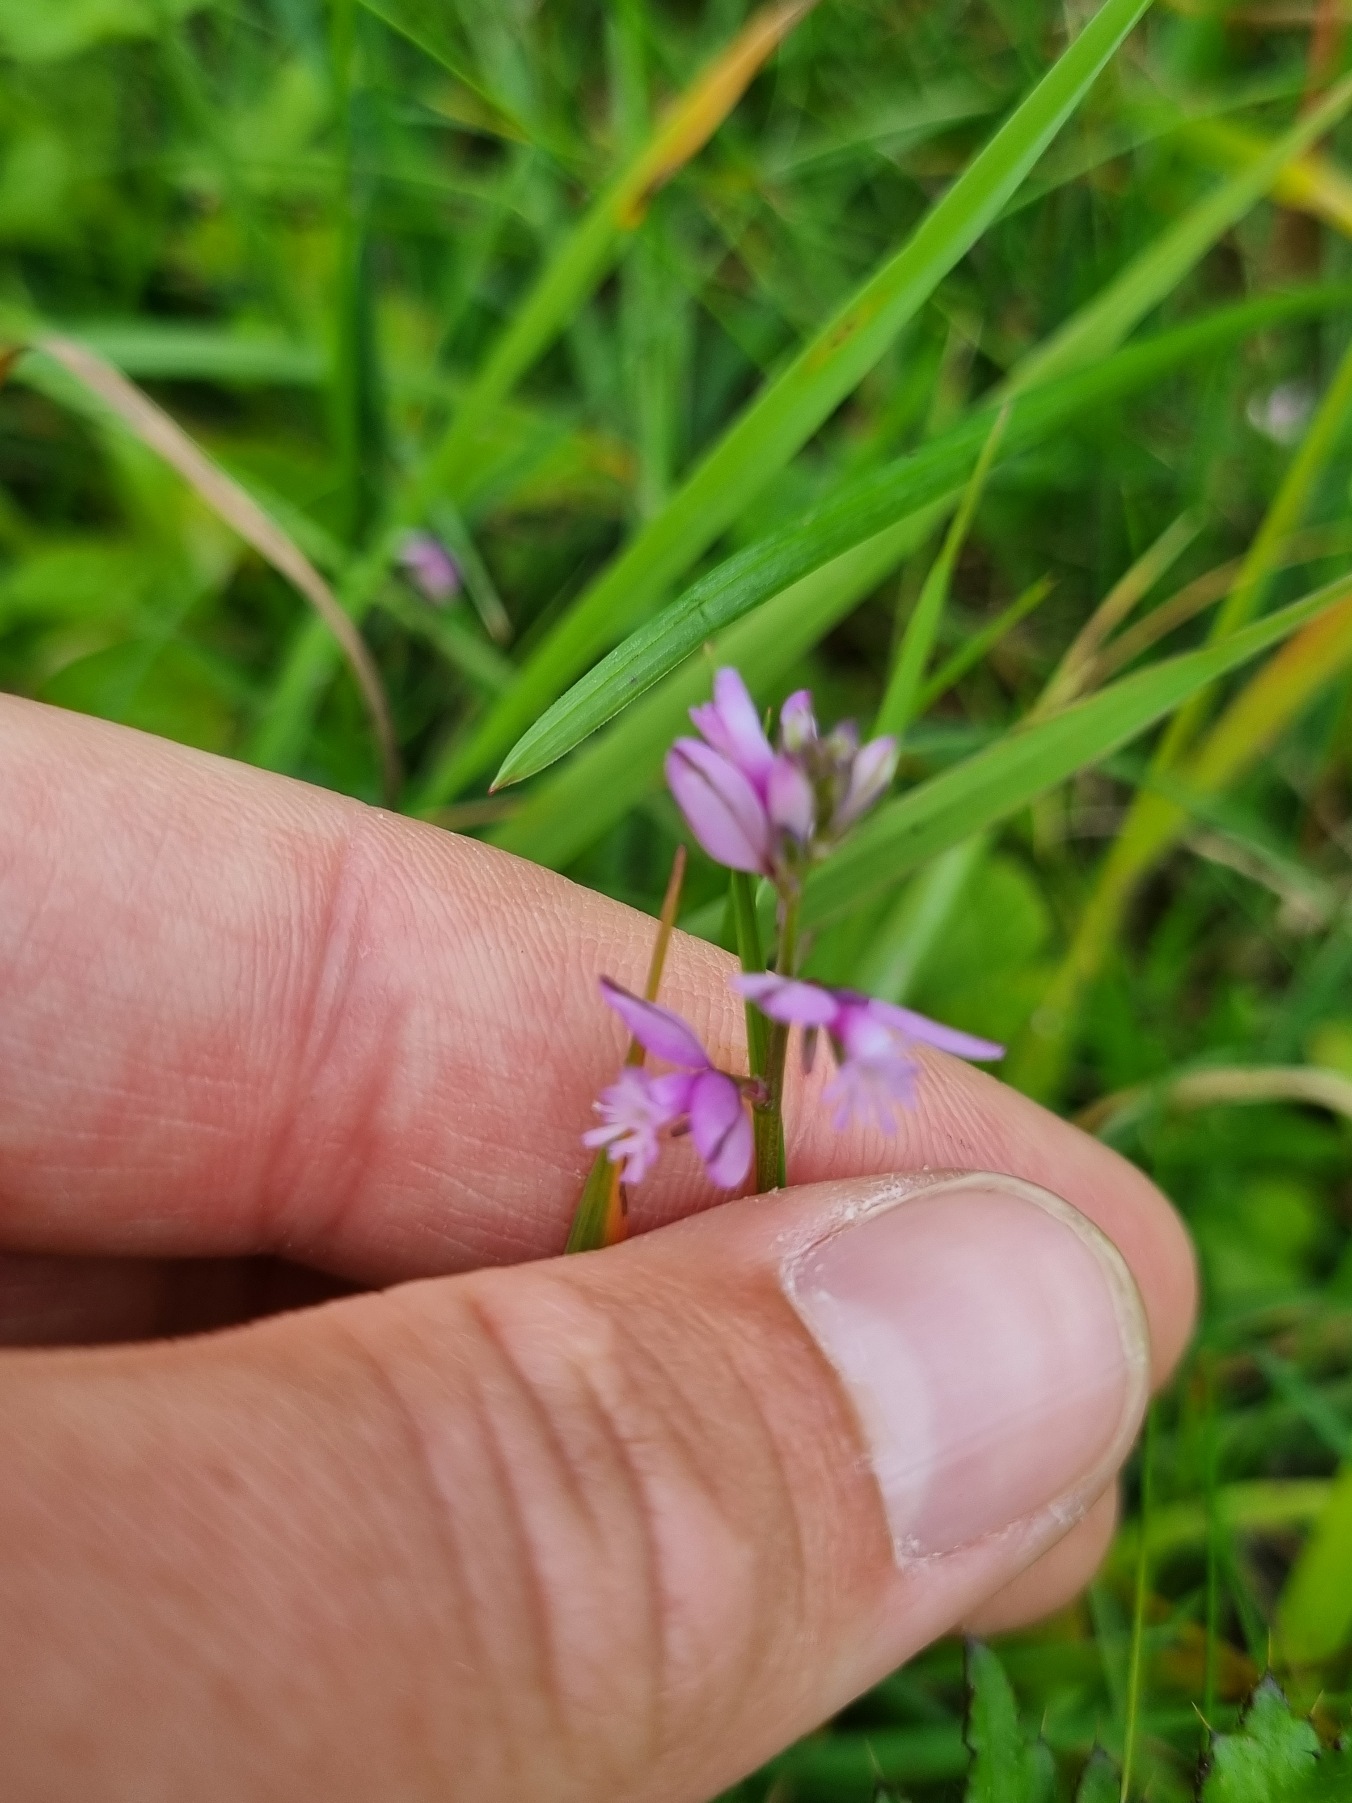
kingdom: Plantae
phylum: Tracheophyta
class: Magnoliopsida
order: Fabales
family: Polygalaceae
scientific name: Polygalaceae
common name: Mælkeurtfamilien
